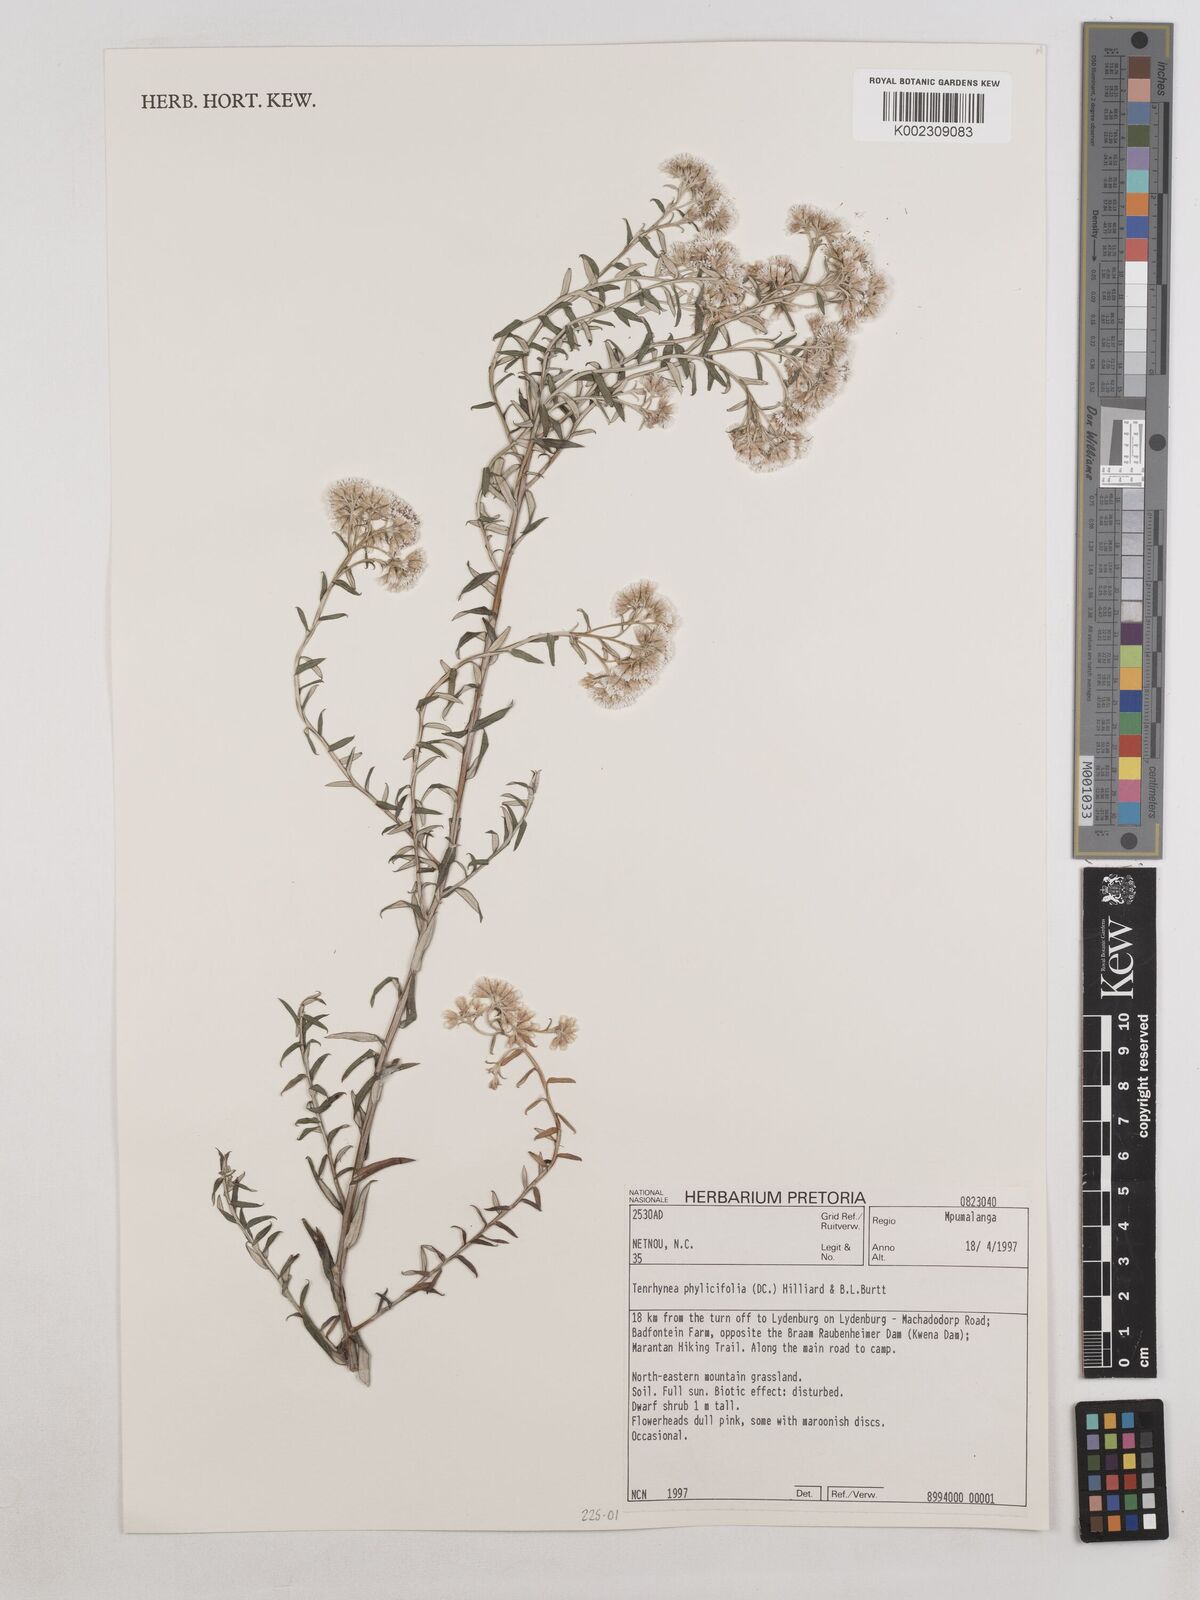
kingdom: Plantae
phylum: Tracheophyta
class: Magnoliopsida
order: Asterales
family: Asteraceae
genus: Tenrhynea
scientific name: Tenrhynea phylicifolia
